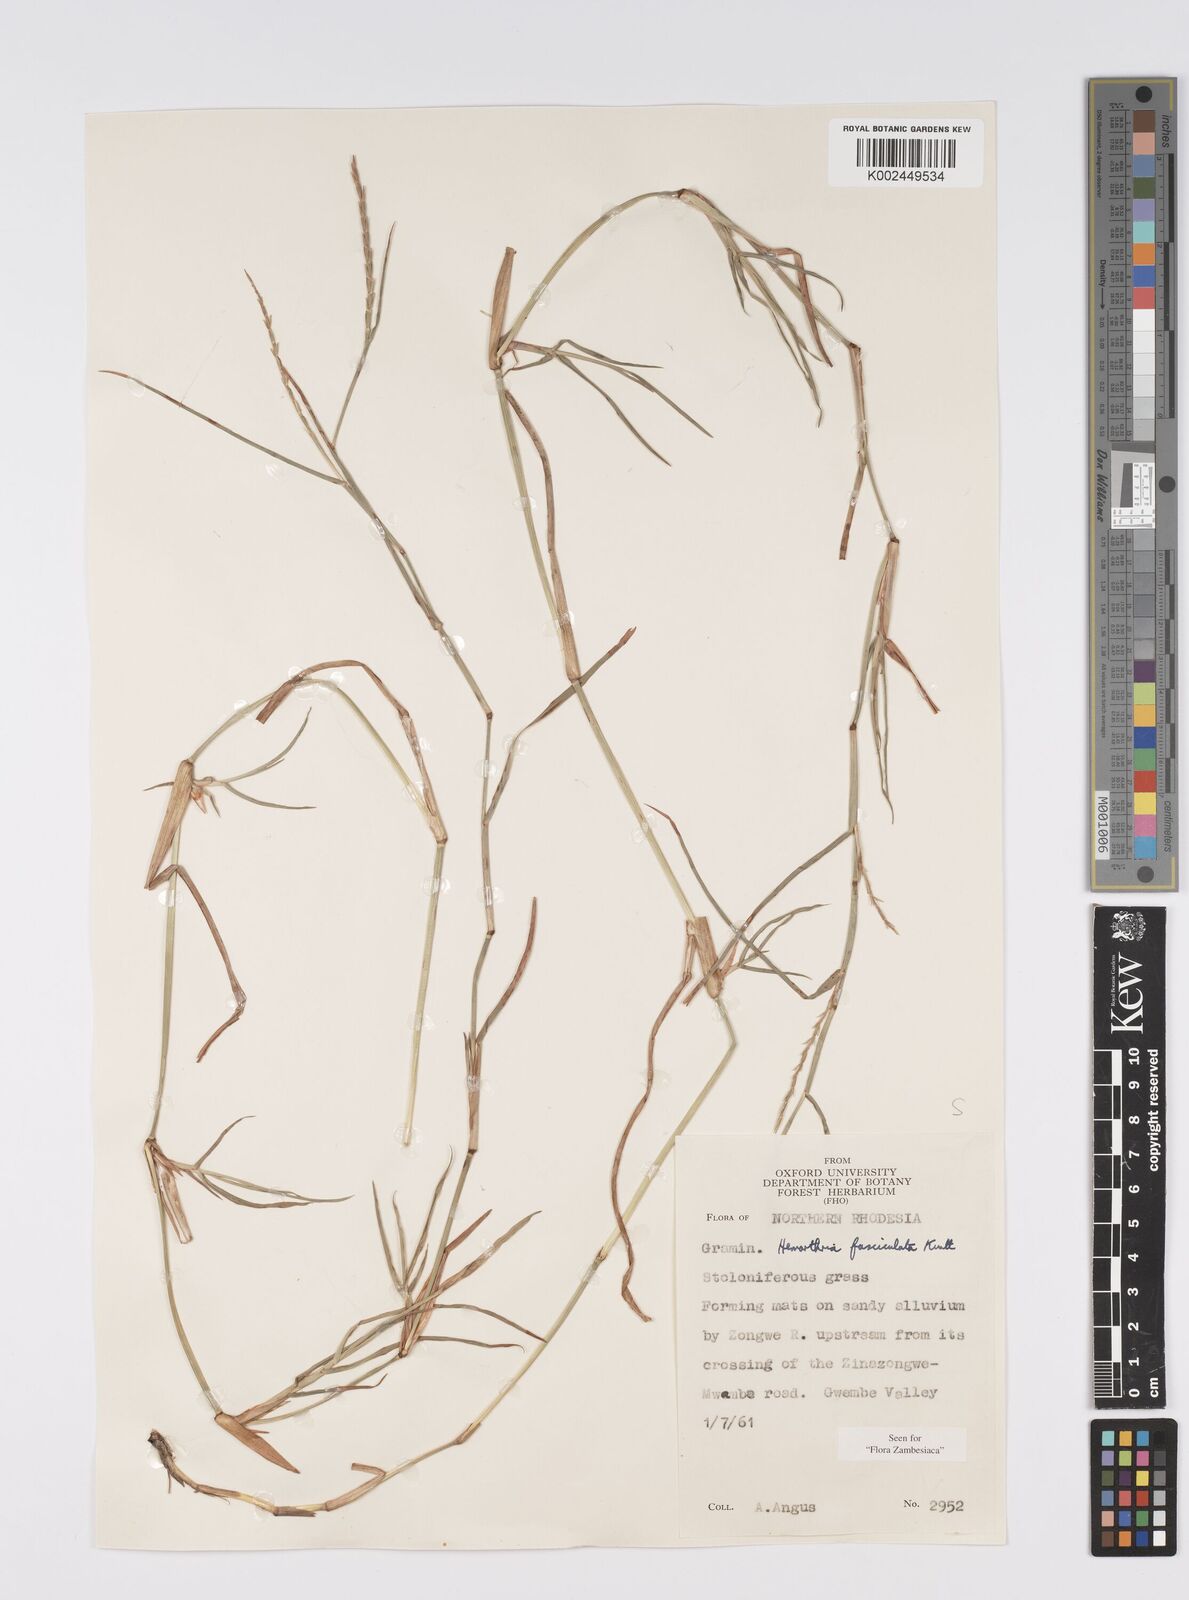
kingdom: Plantae
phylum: Tracheophyta
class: Liliopsida
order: Poales
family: Poaceae
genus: Hemarthria
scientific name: Hemarthria altissima
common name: African jointgrass
